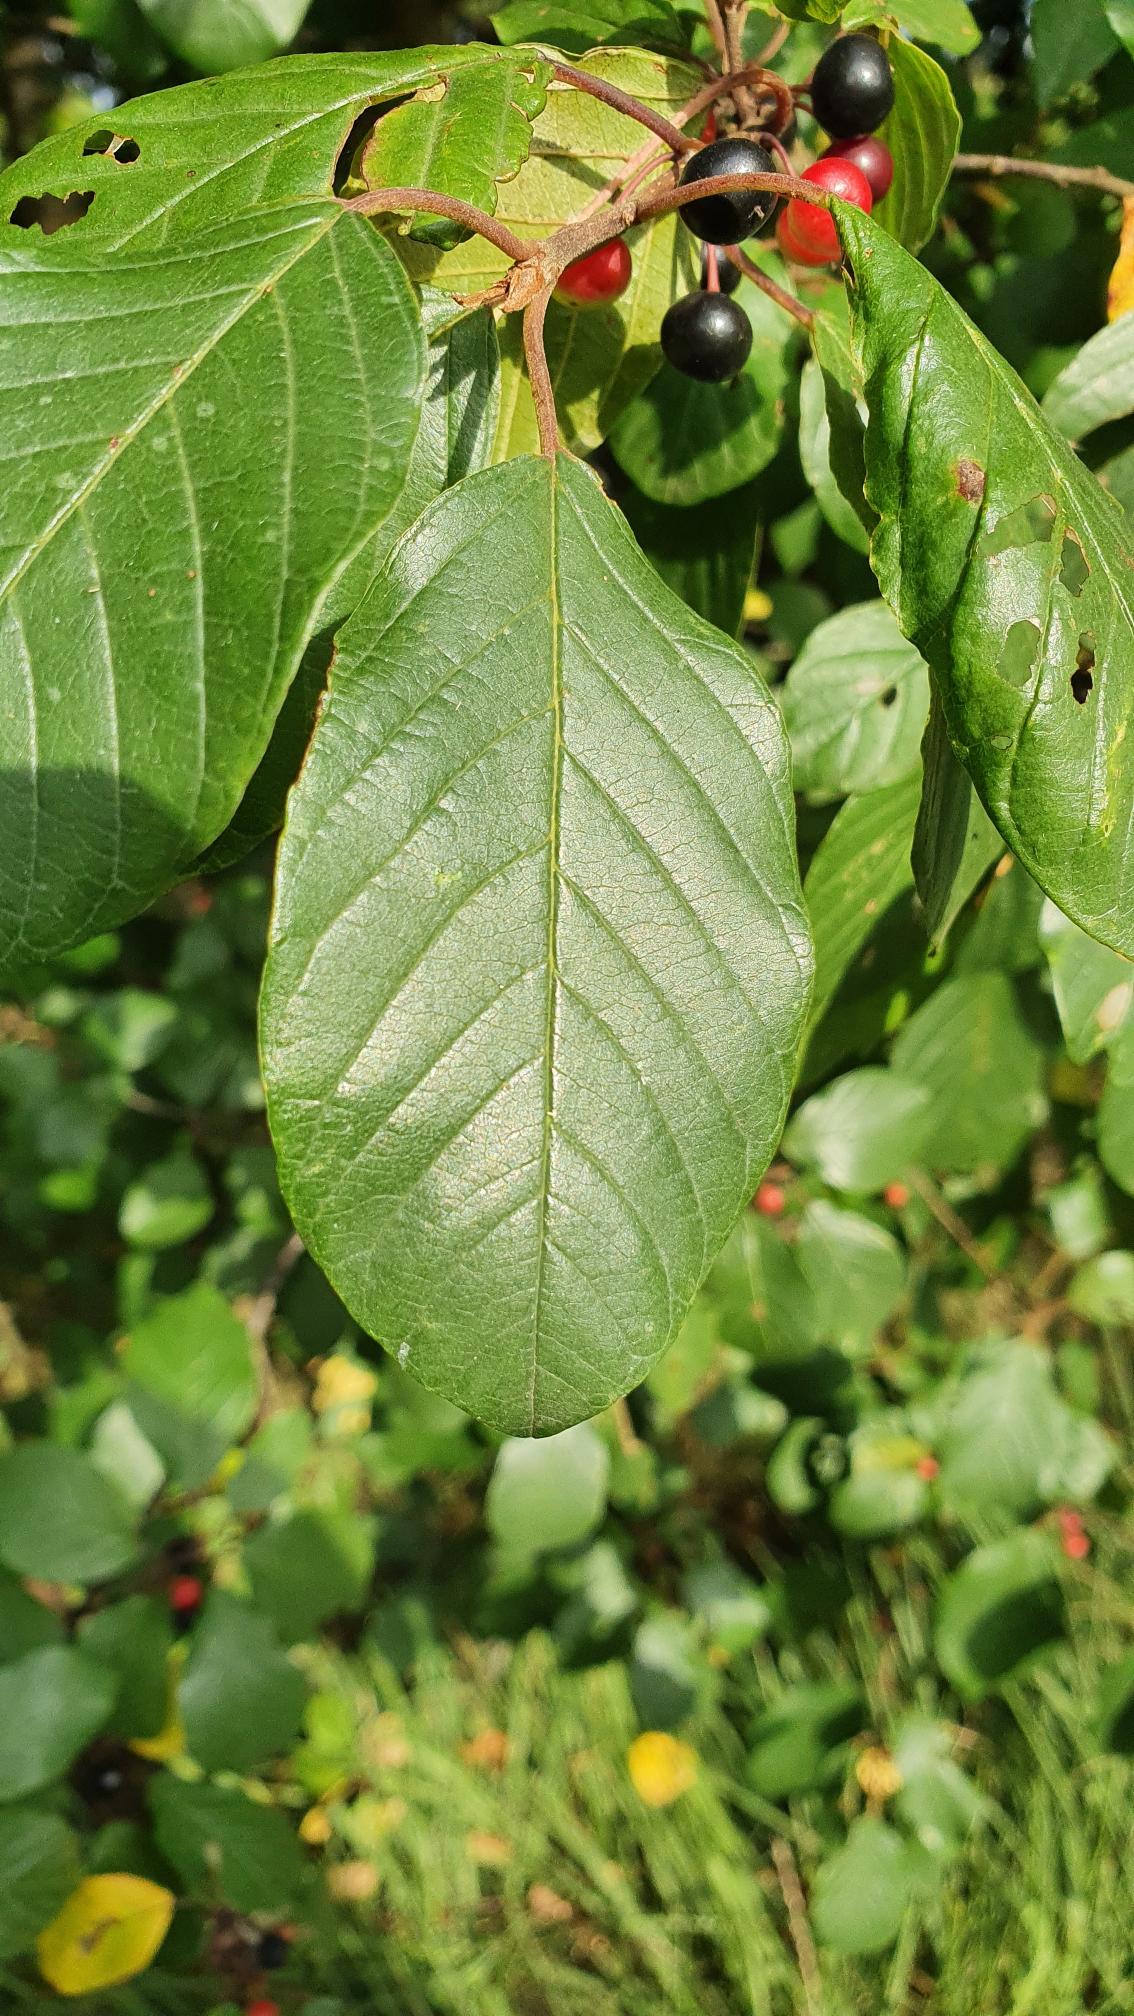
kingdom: Plantae
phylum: Tracheophyta
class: Magnoliopsida
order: Rosales
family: Rhamnaceae
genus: Frangula
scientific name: Frangula alnus
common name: Tørst
